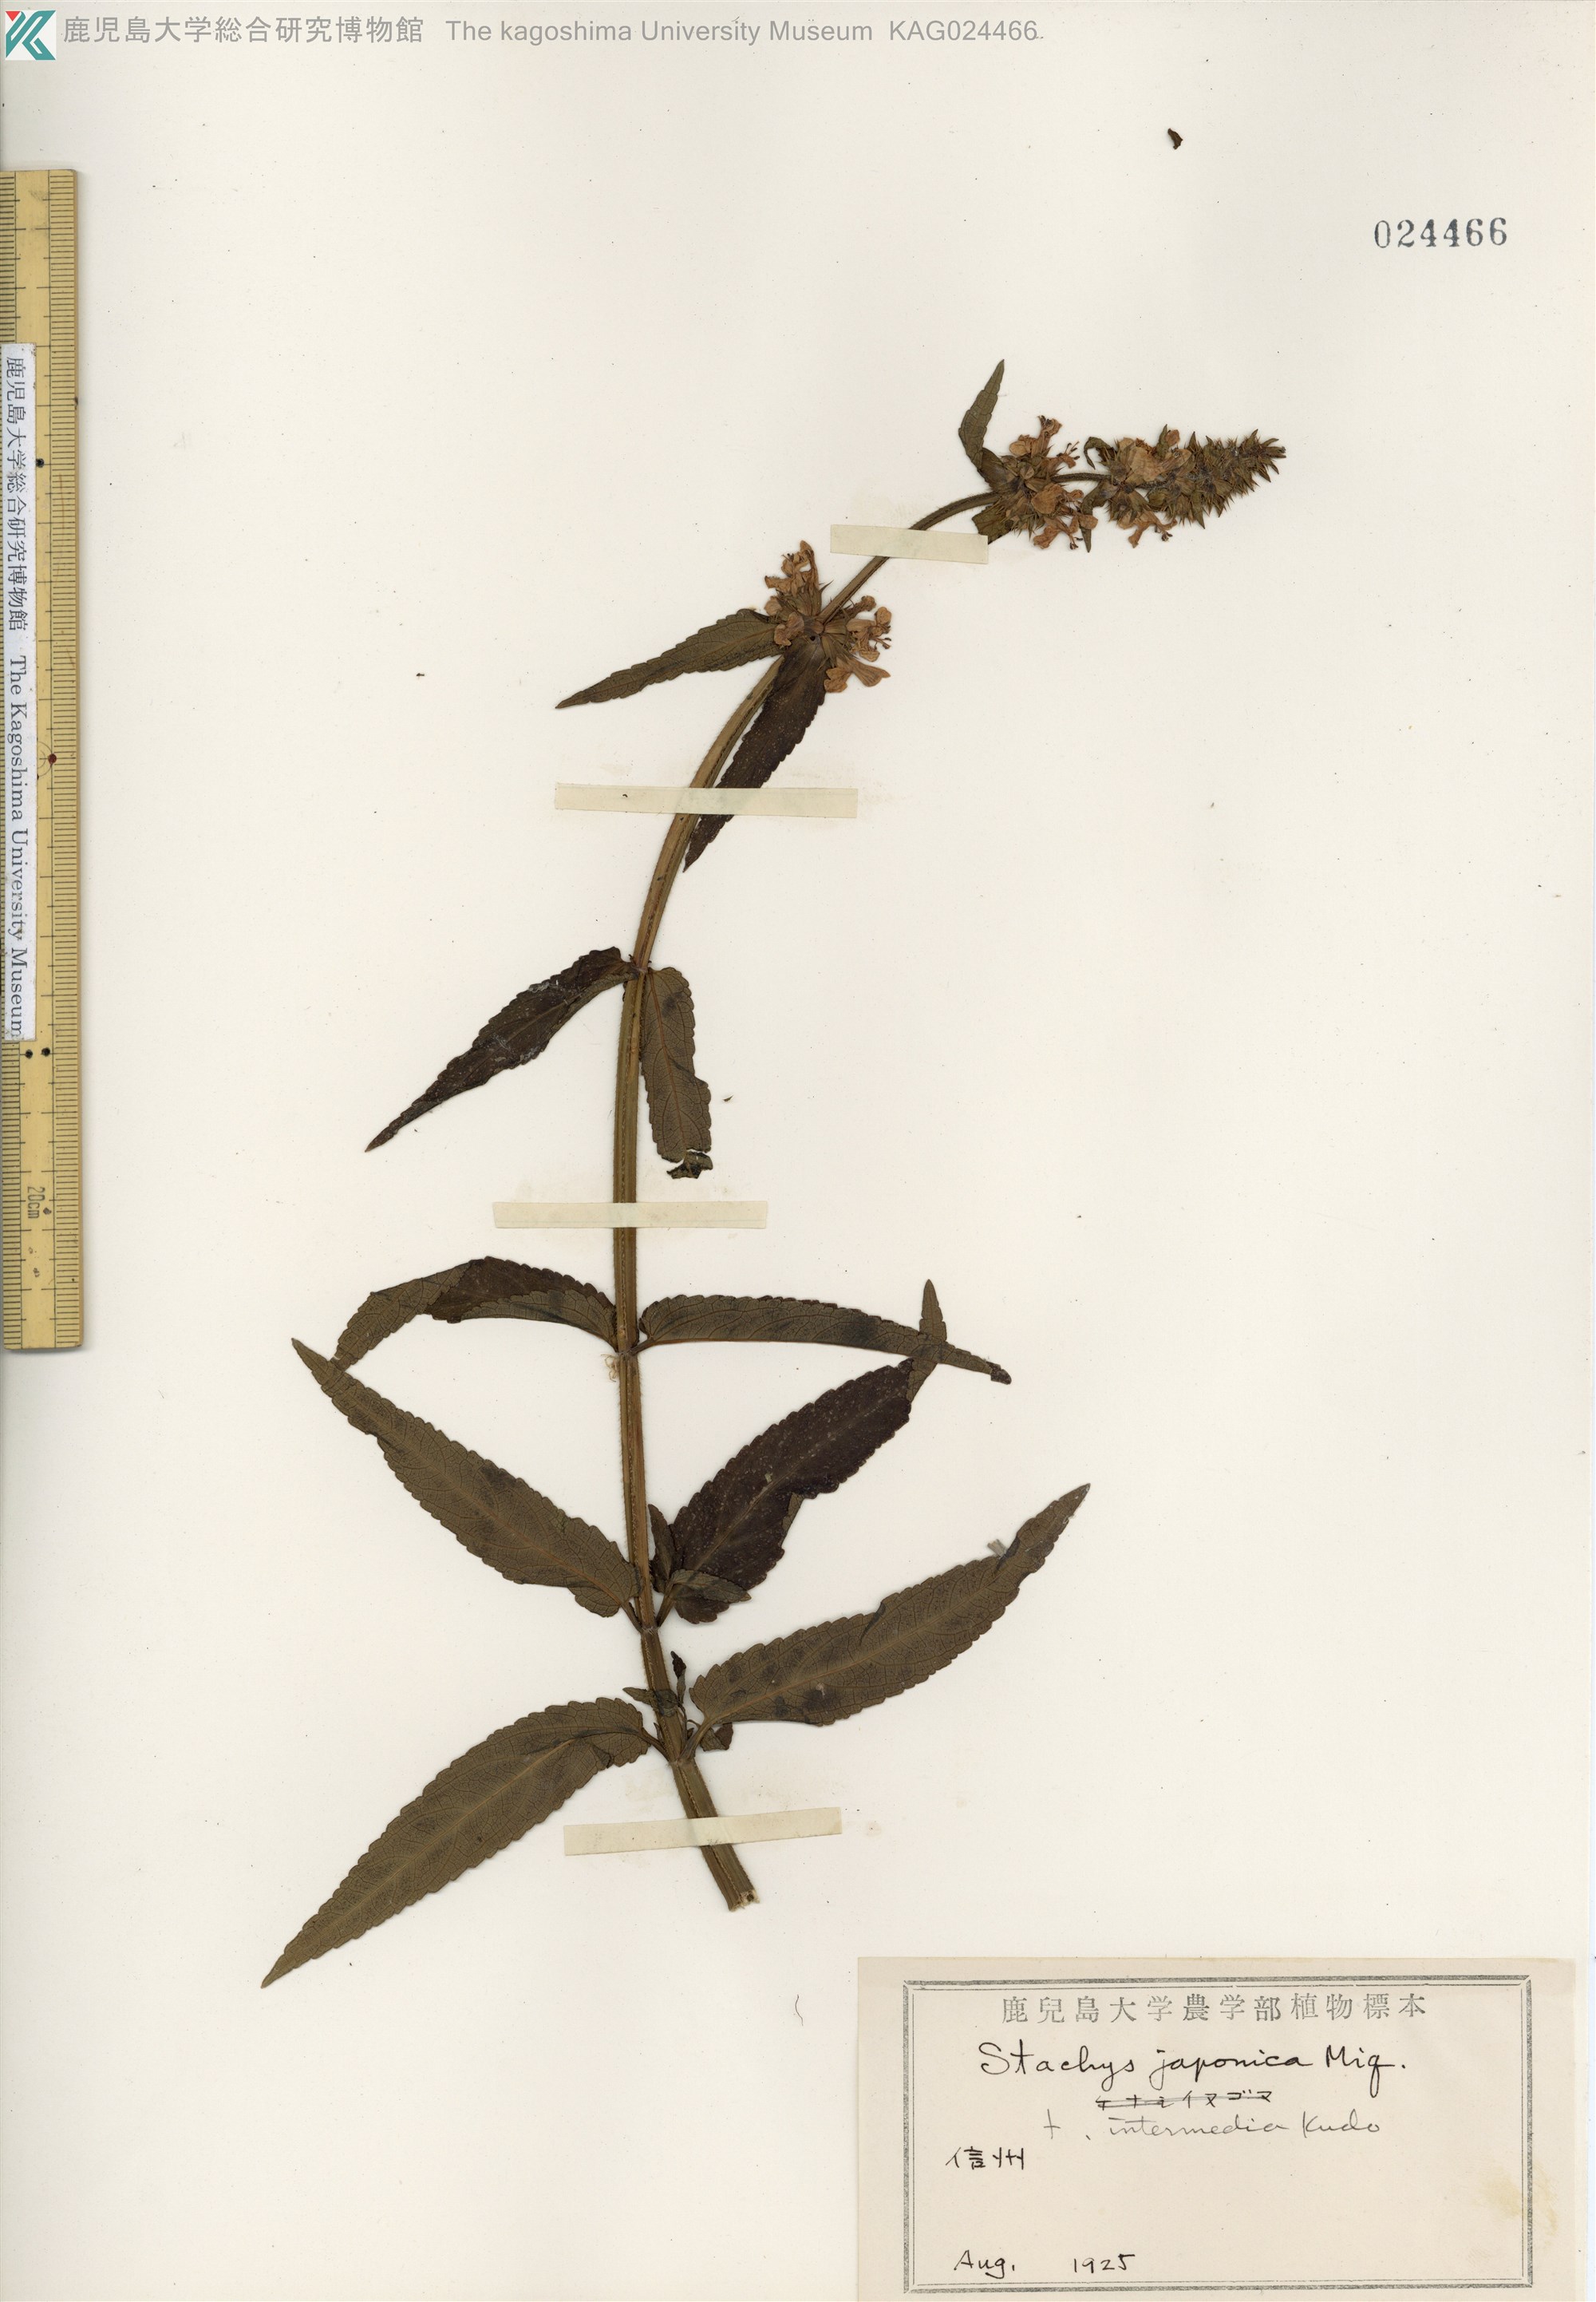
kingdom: Plantae
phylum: Tracheophyta
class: Magnoliopsida
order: Lamiales
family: Lamiaceae
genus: Stachys
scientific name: Stachys aspera
